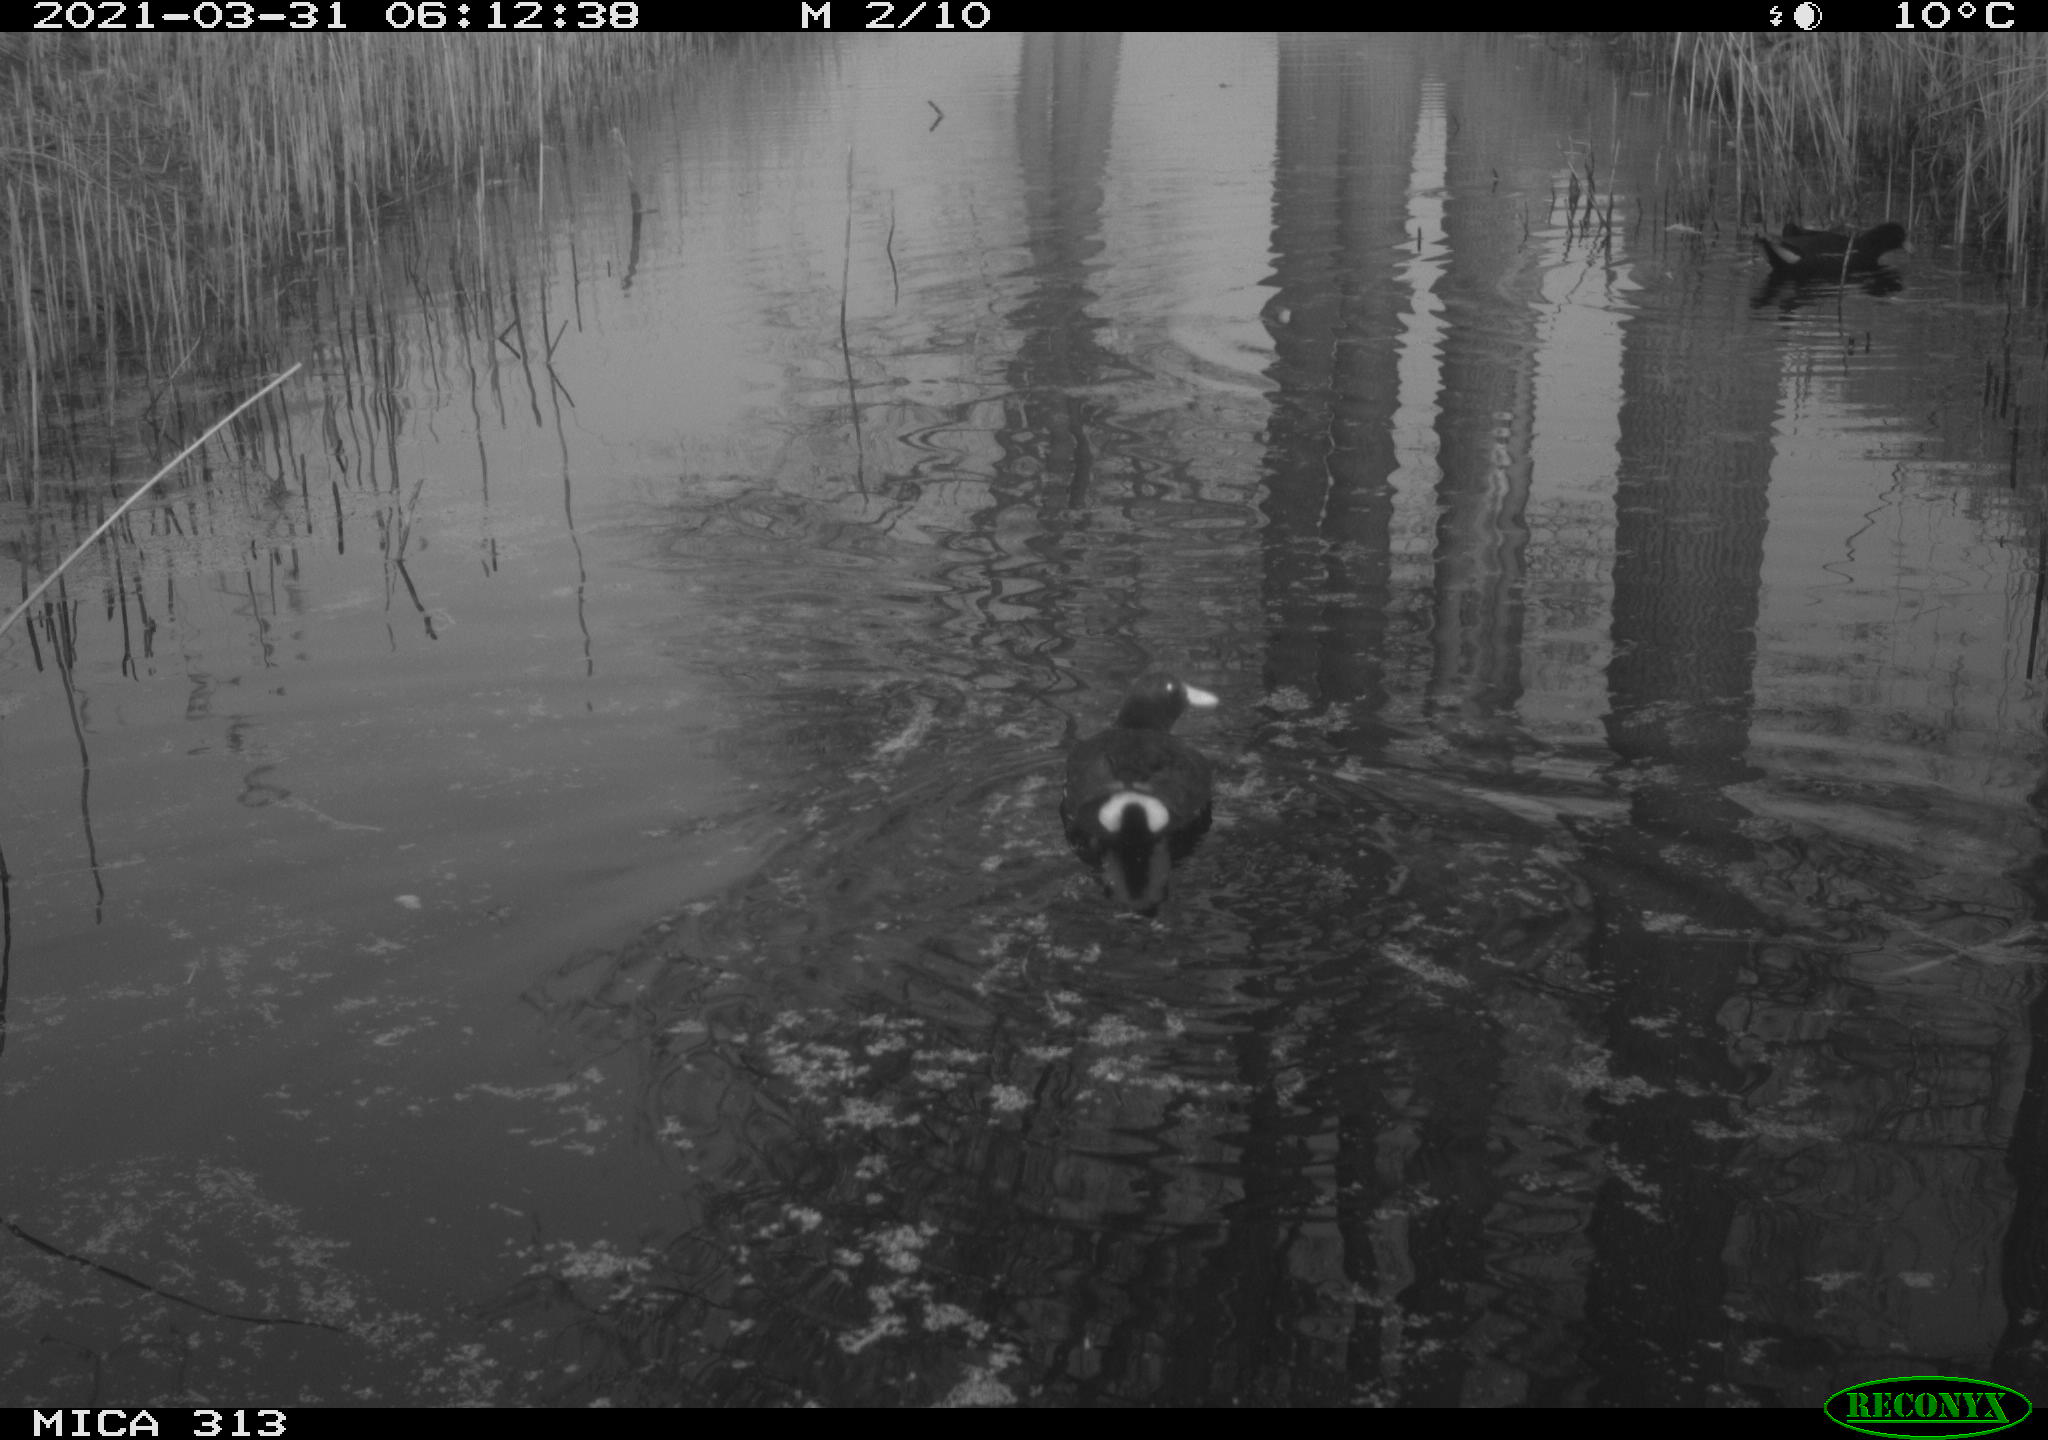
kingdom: Animalia
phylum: Chordata
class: Aves
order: Gruiformes
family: Rallidae
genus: Gallinula
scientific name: Gallinula chloropus
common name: Common moorhen
